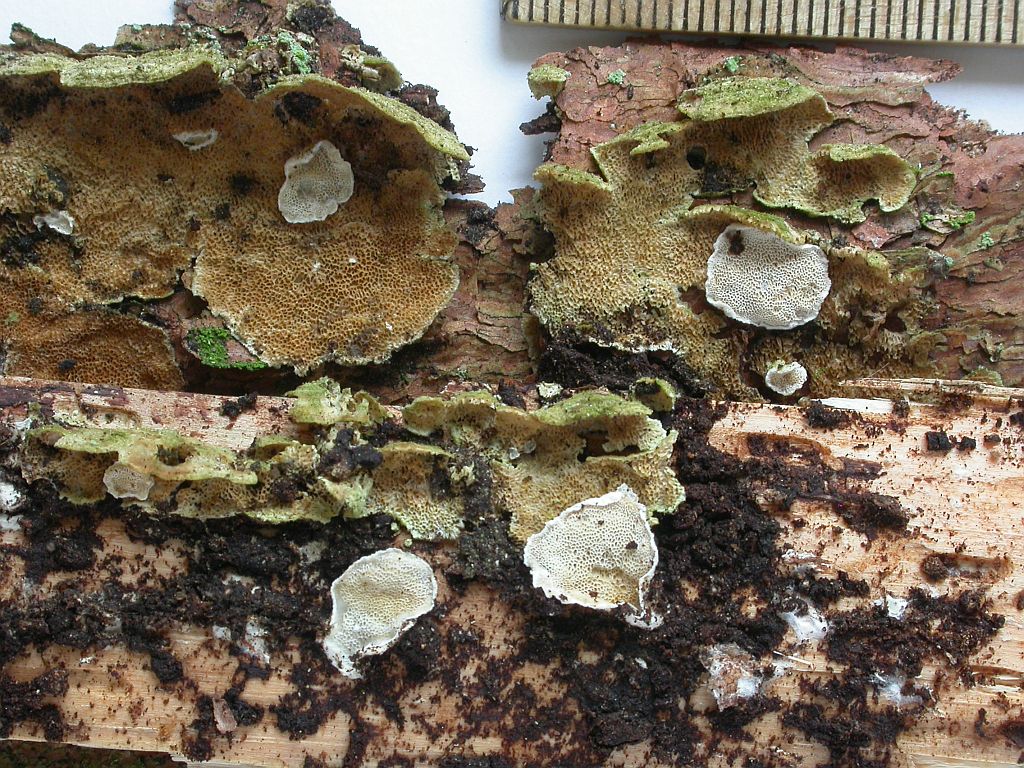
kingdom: Fungi
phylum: Basidiomycota
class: Agaricomycetes
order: Polyporales
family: Incrustoporiaceae
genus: Skeletocutis
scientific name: Skeletocutis carneogrisea
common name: rødgrå krystalporesvamp
